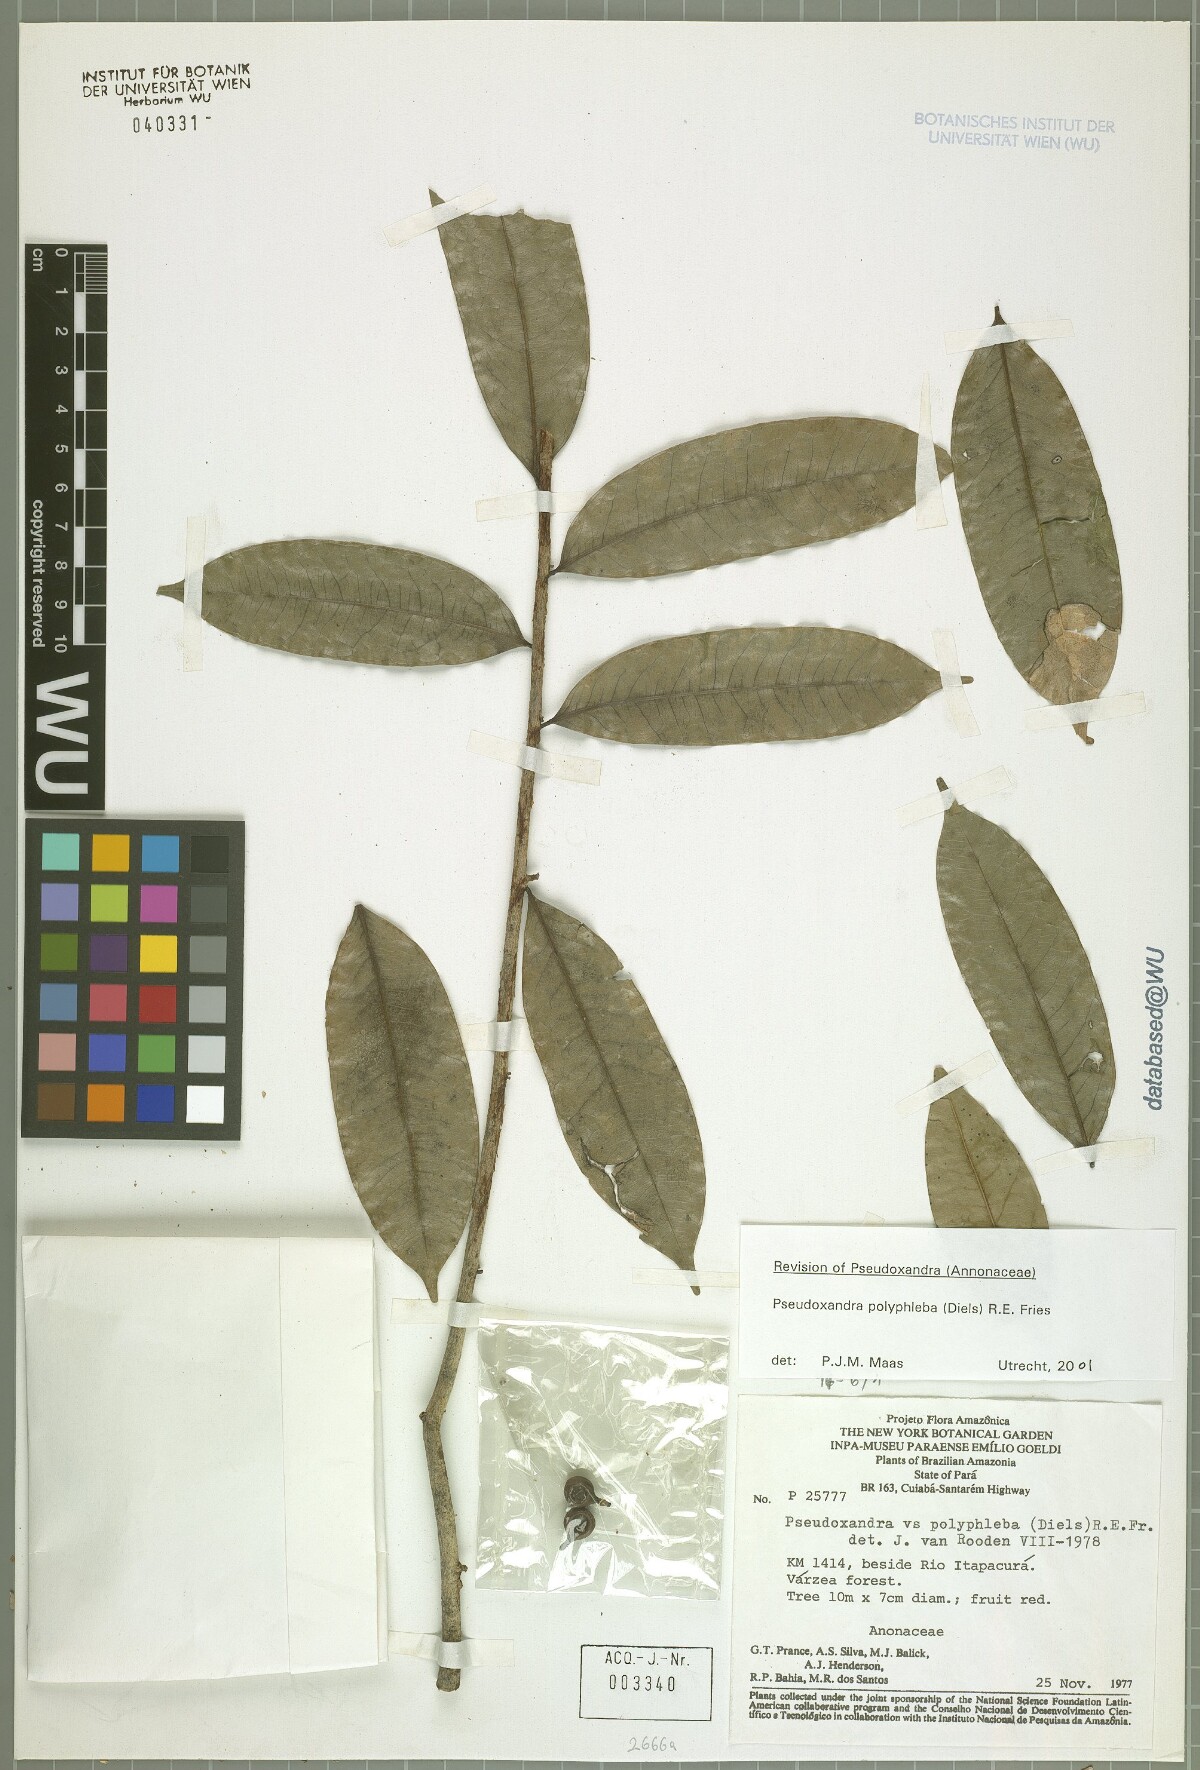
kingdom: Plantae
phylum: Tracheophyta
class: Magnoliopsida
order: Magnoliales
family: Annonaceae
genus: Pseudoxandra
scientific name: Pseudoxandra polyphleba
